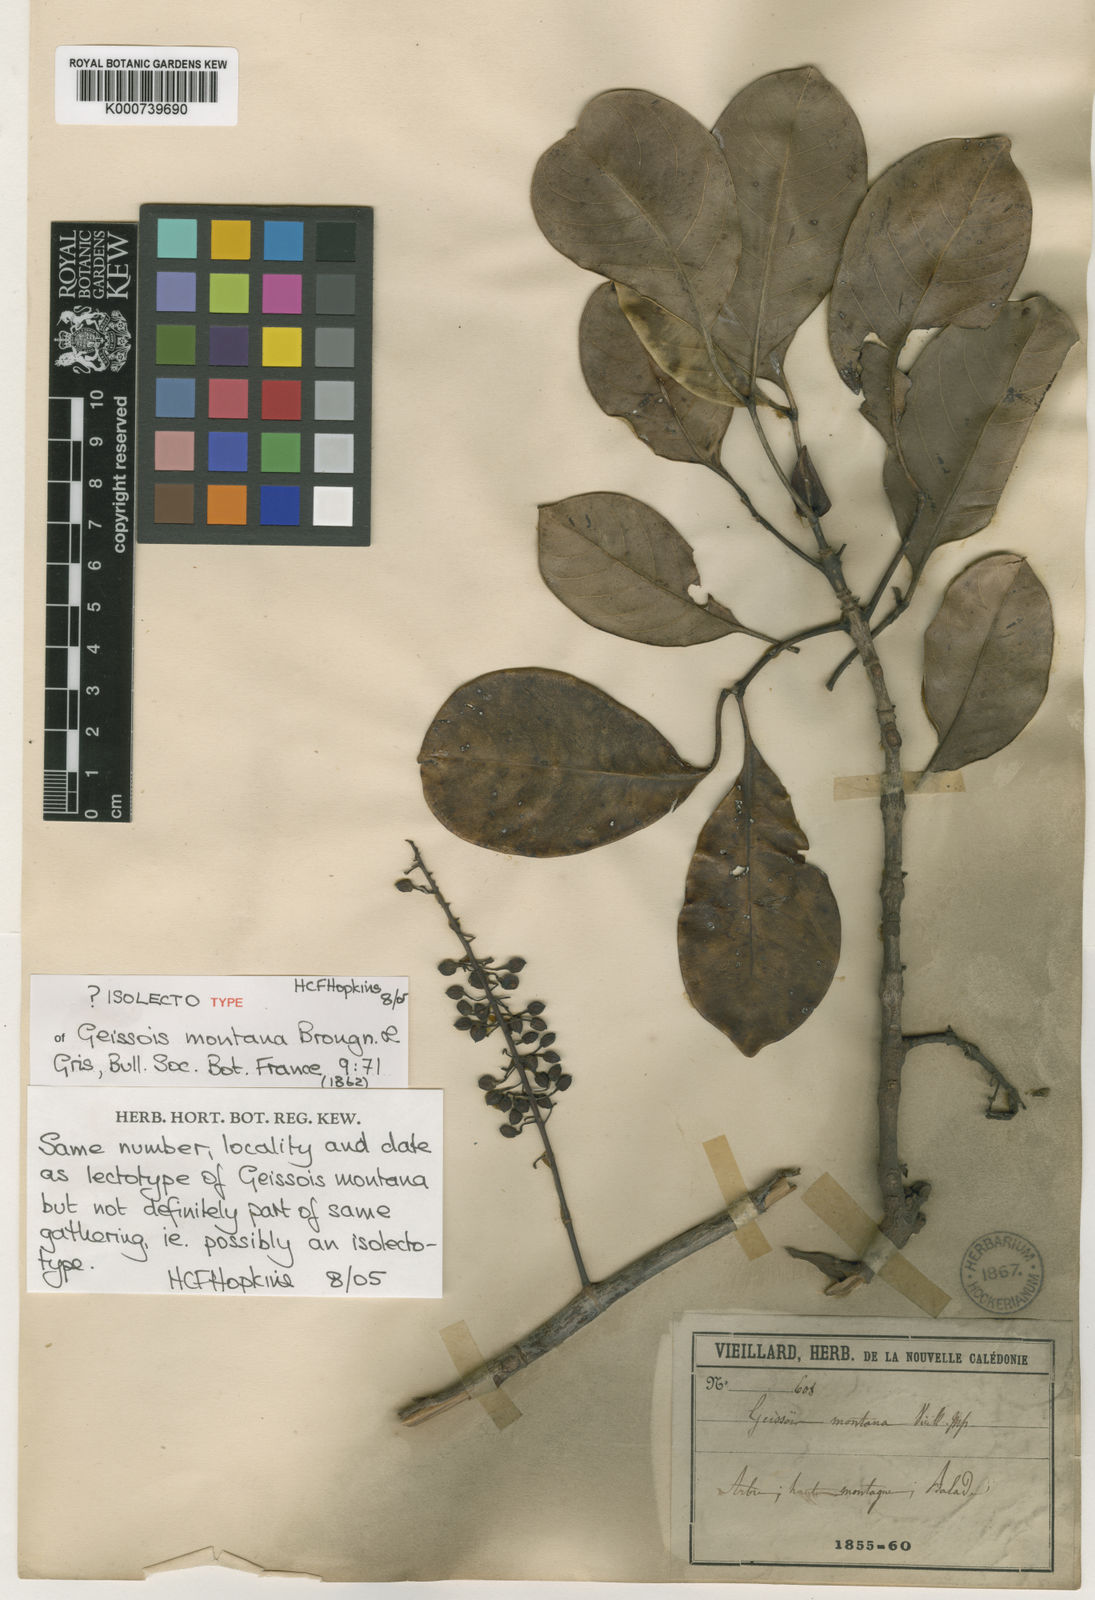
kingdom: Plantae
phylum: Tracheophyta
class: Magnoliopsida
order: Oxalidales
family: Cunoniaceae
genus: Geissois
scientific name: Geissois montana
